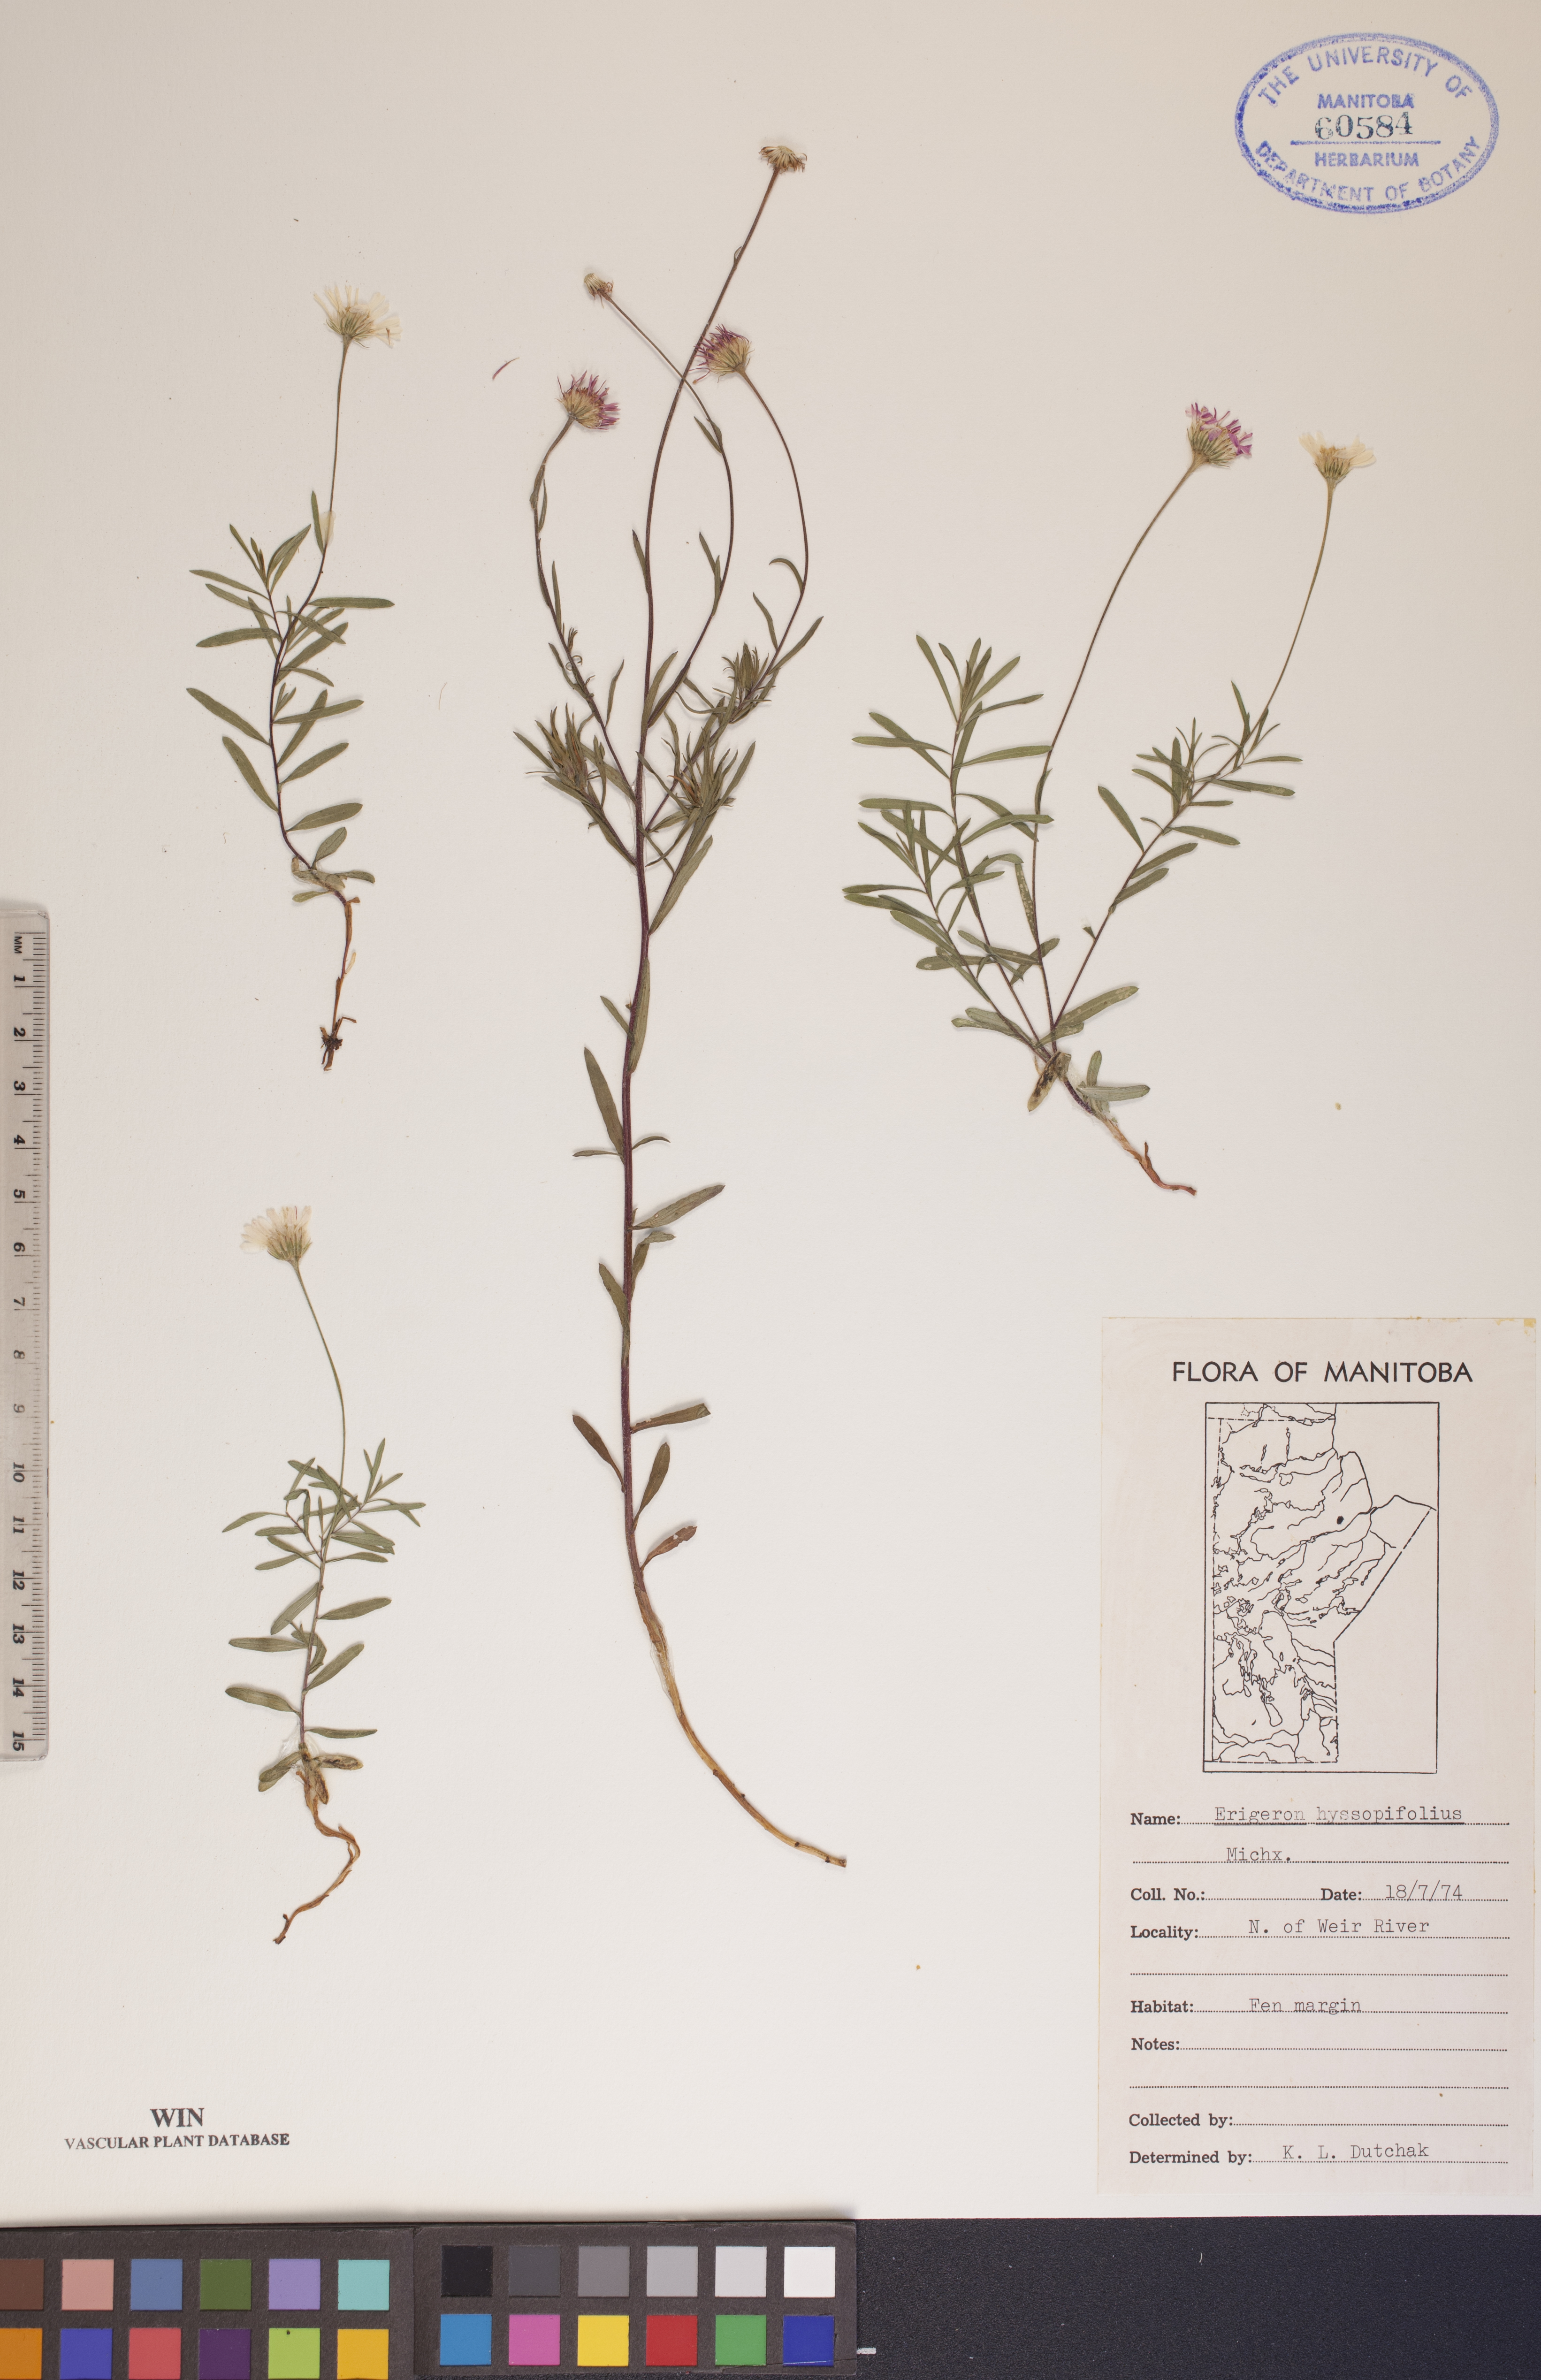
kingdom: Plantae
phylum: Tracheophyta
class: Magnoliopsida
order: Asterales
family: Asteraceae
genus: Erigeron
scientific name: Erigeron hyssopifolius
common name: Daisy fleabane
